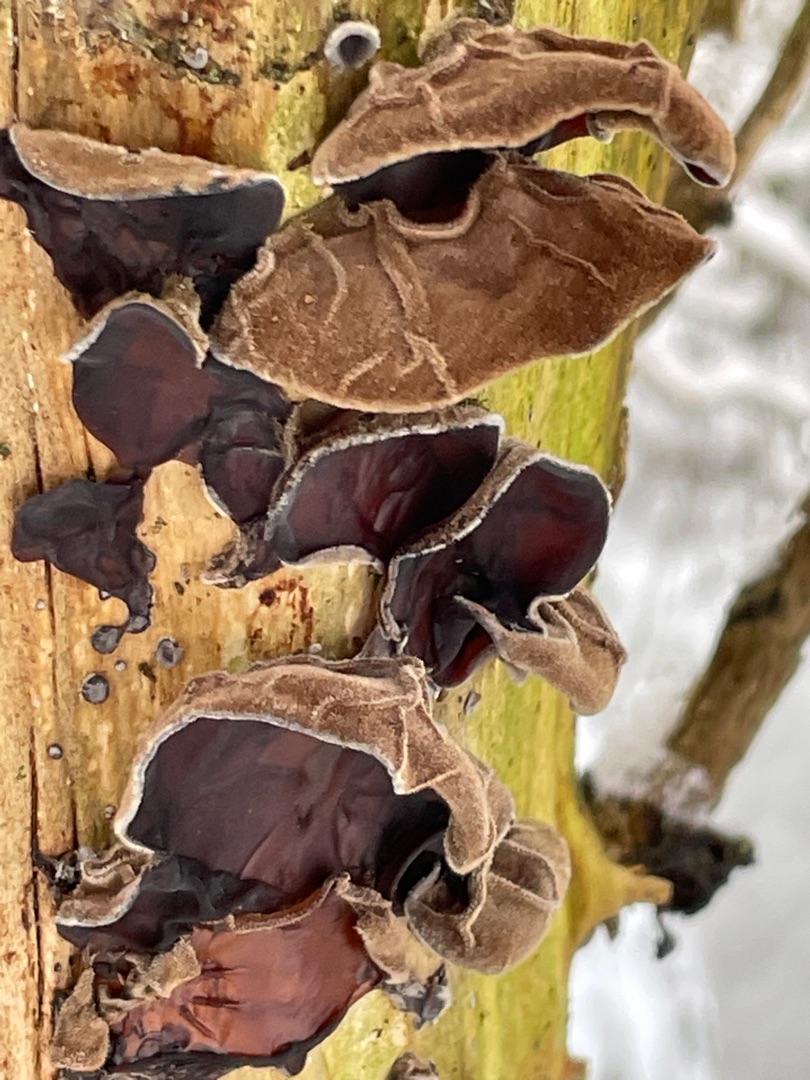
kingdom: Fungi
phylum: Basidiomycota
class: Agaricomycetes
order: Auriculariales
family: Auriculariaceae
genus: Auricularia
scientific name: Auricularia auricula-judae
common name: Almindelig judasøre
